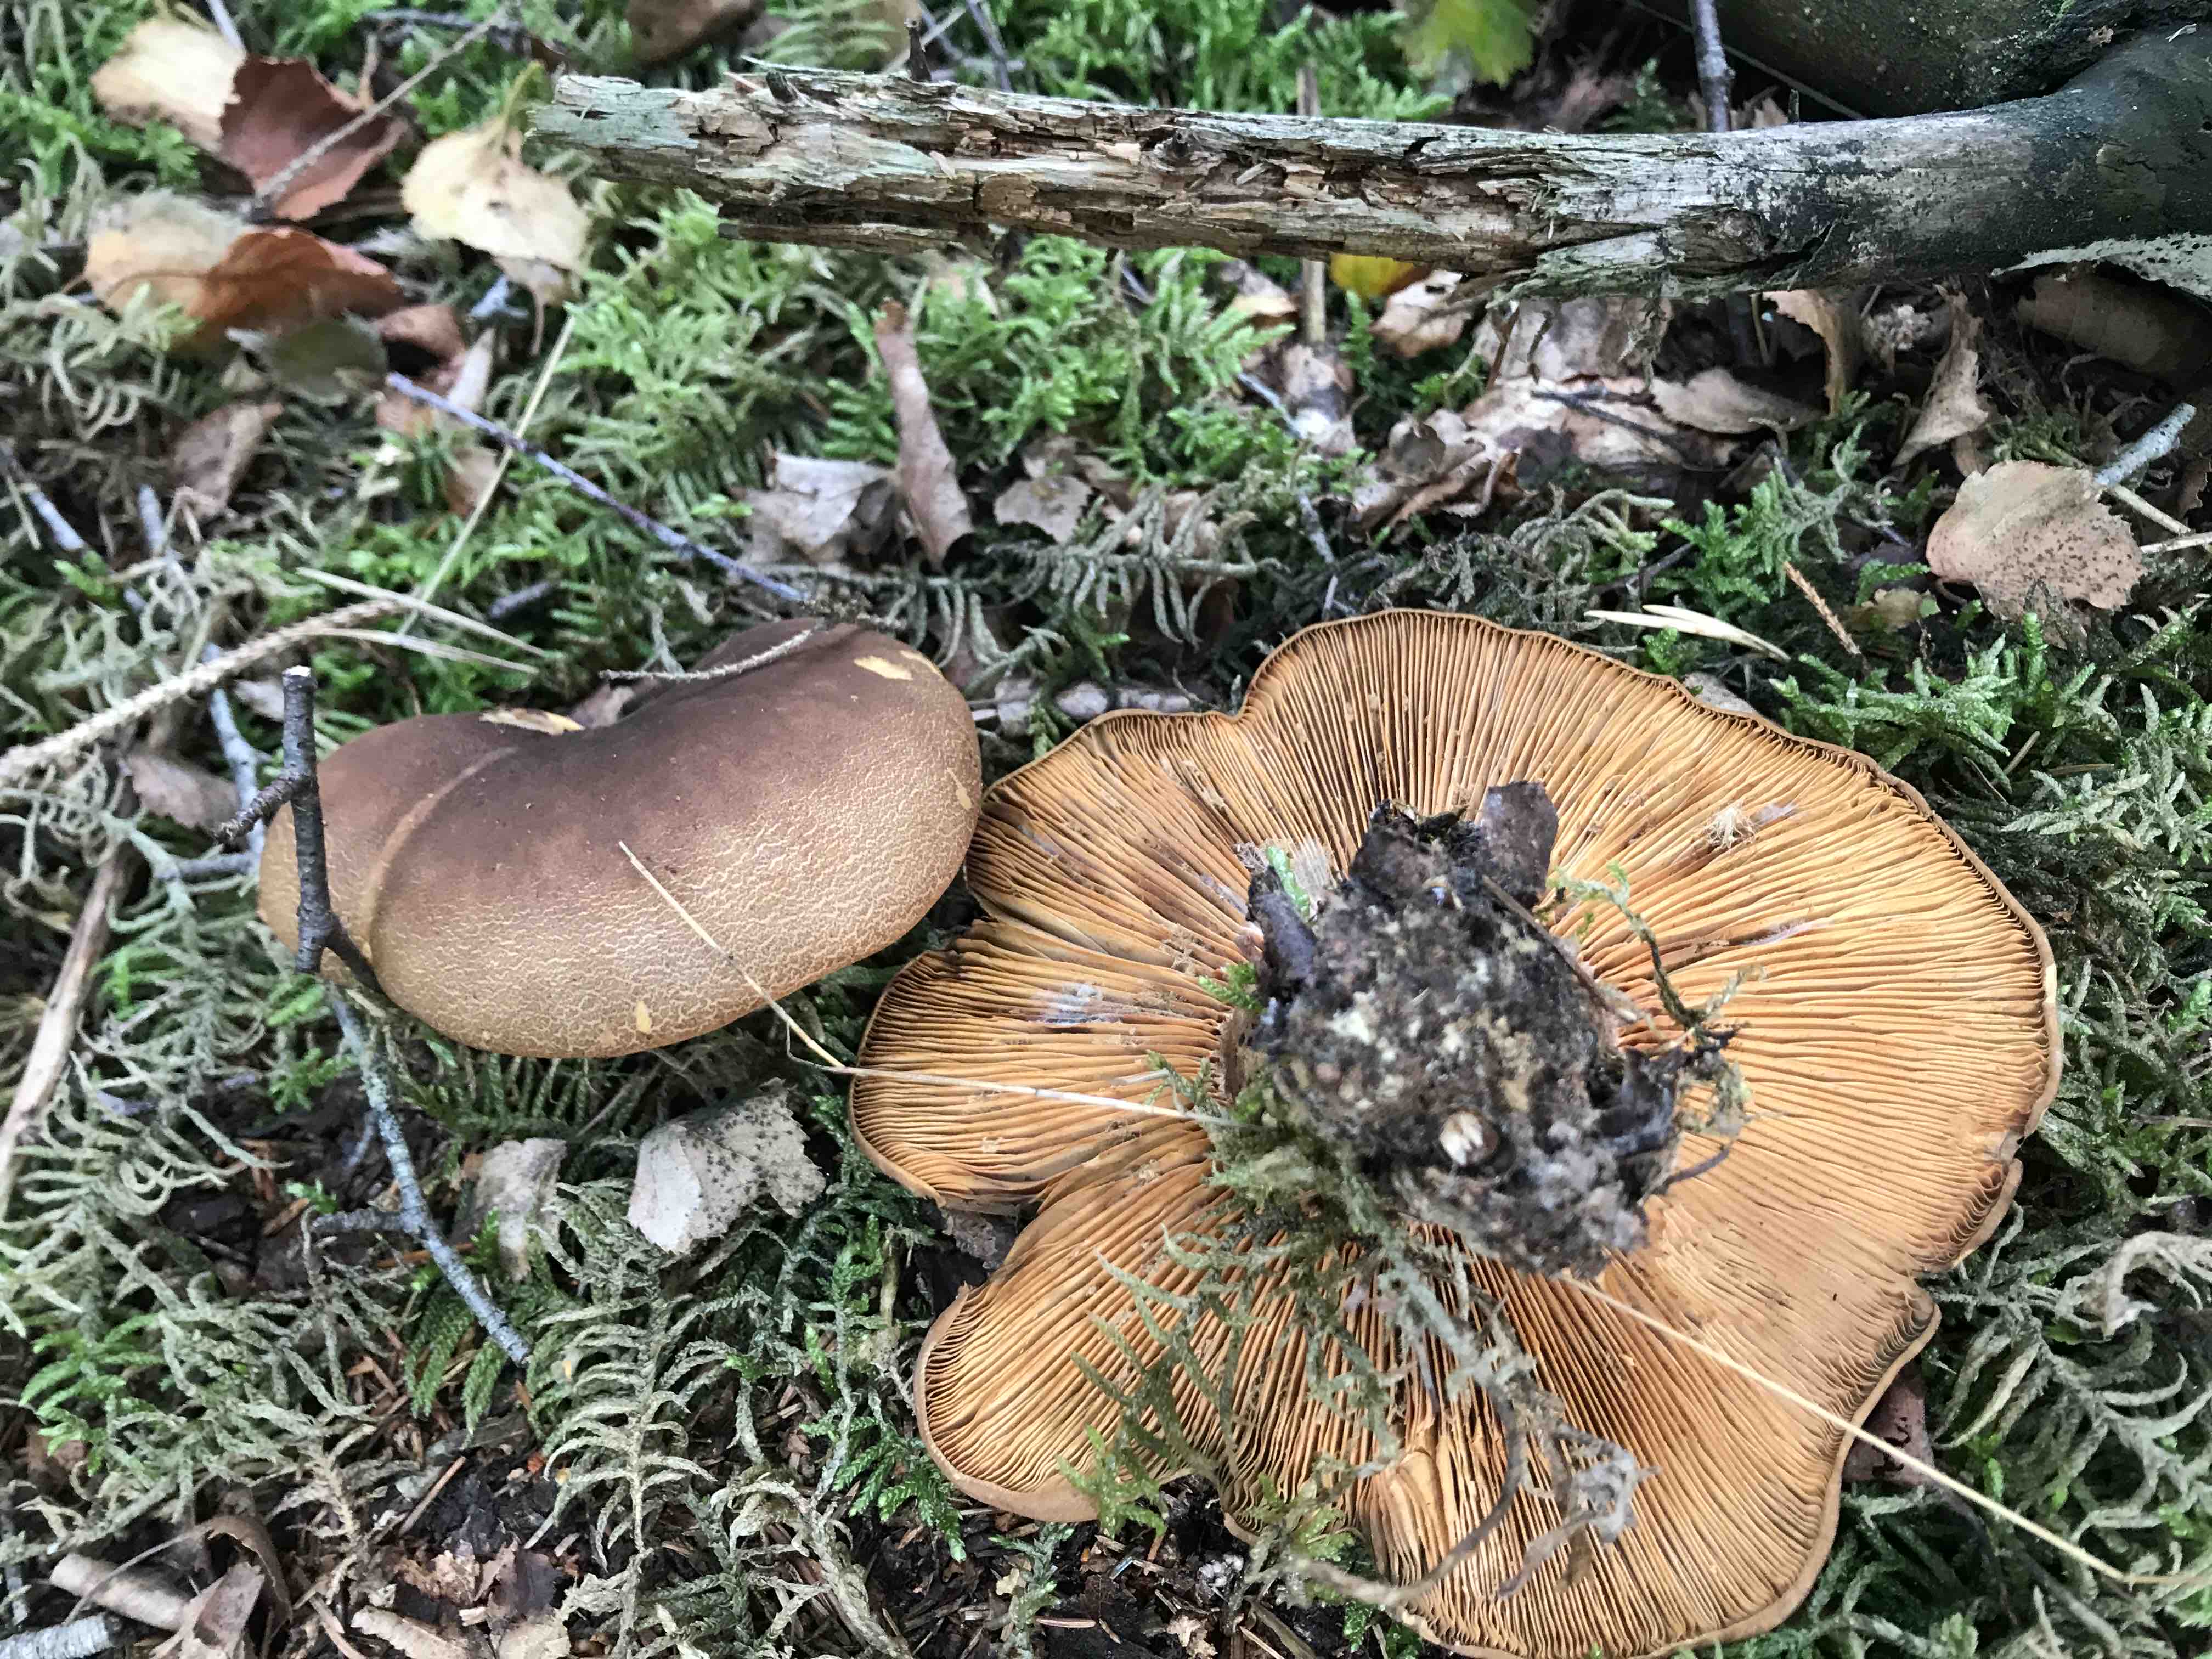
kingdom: Fungi
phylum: Basidiomycota
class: Agaricomycetes
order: Boletales
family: Tapinellaceae
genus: Tapinella
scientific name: Tapinella atrotomentosa
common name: sortfiltet viftesvamp
